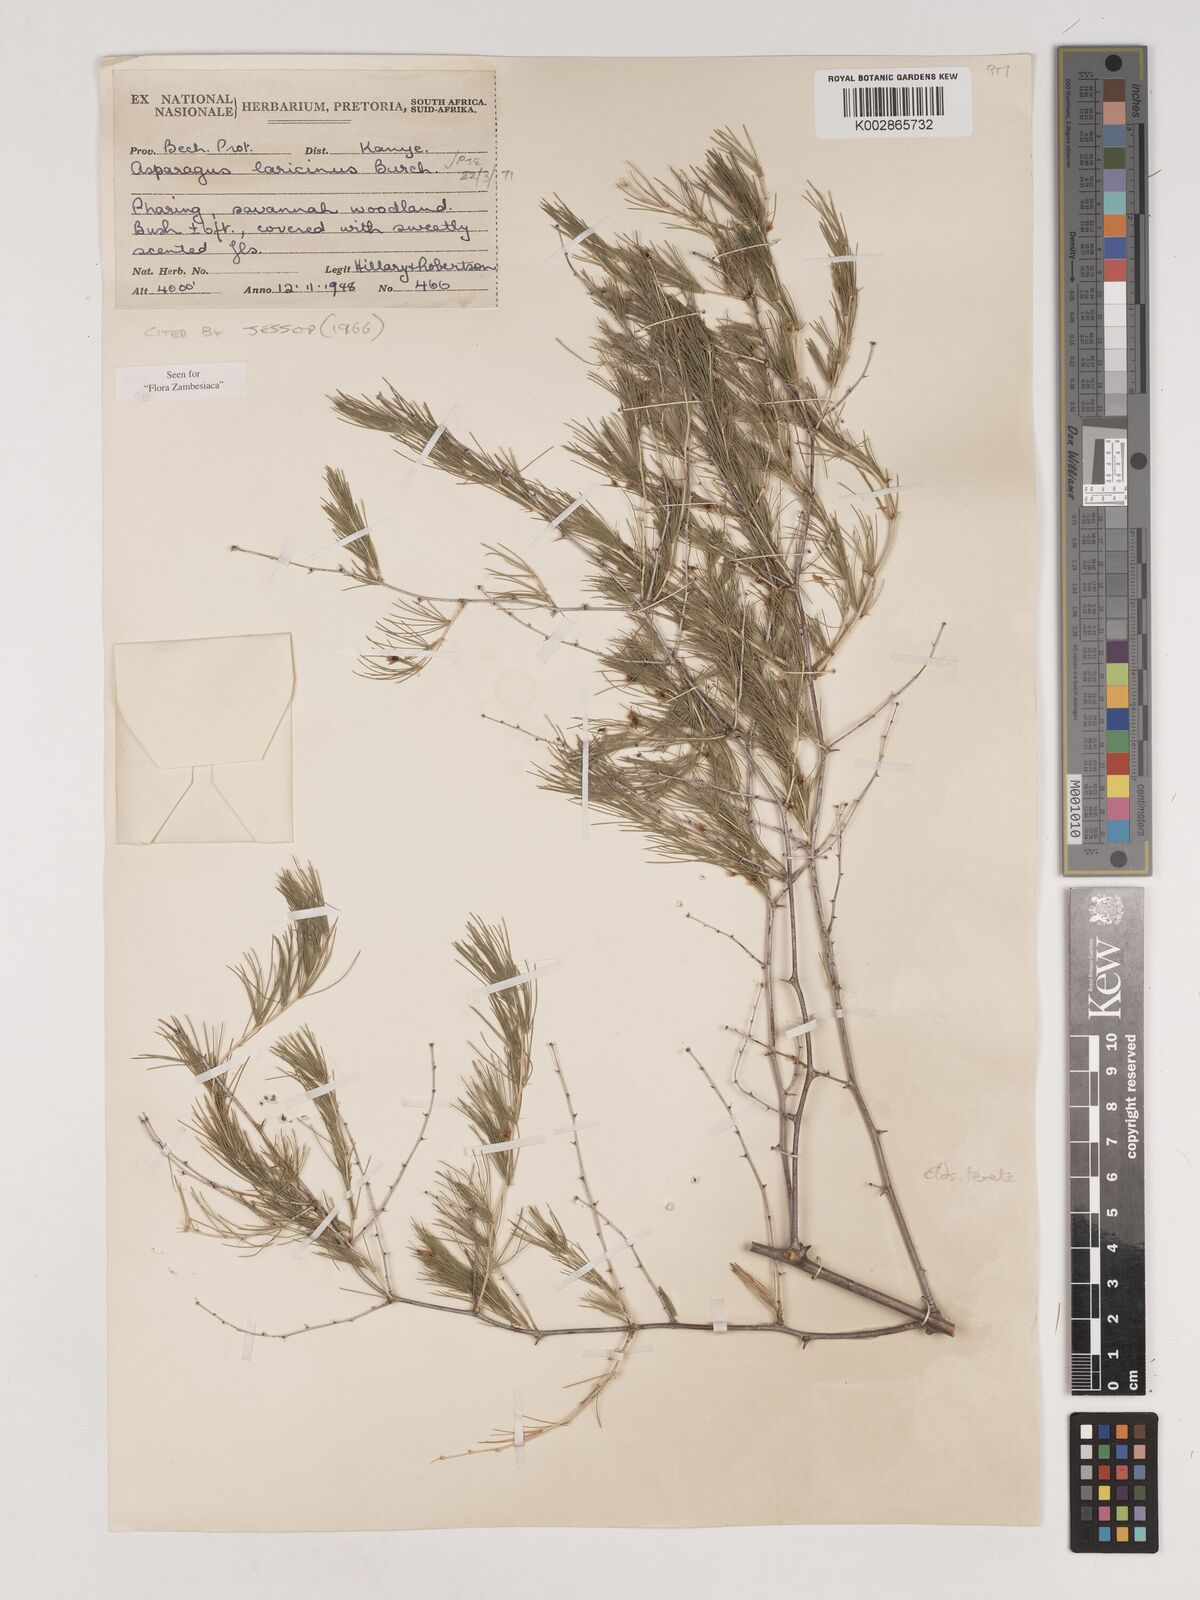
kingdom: Plantae
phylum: Tracheophyta
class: Liliopsida
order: Asparagales
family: Asparagaceae
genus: Asparagus
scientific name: Asparagus laricinus
